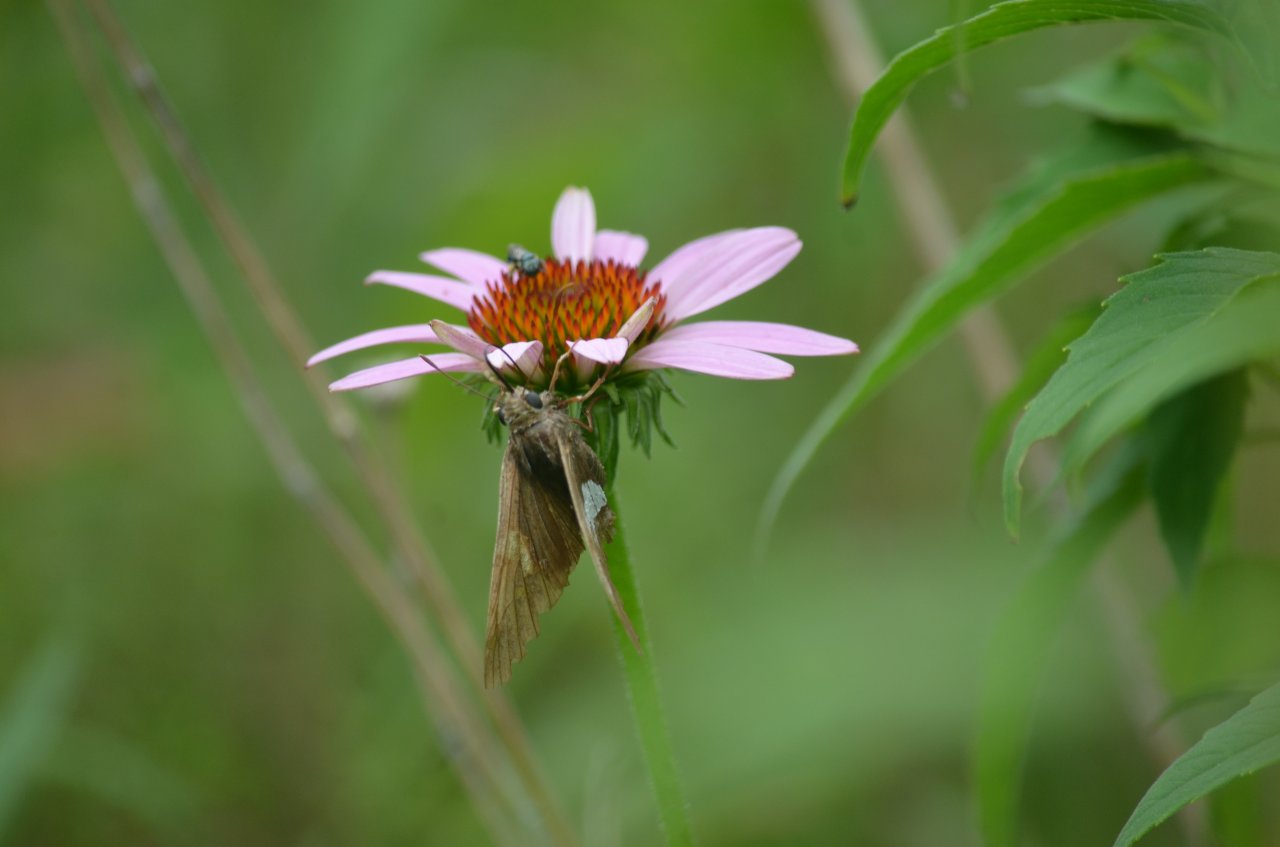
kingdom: Animalia
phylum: Arthropoda
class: Insecta
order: Lepidoptera
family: Hesperiidae
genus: Epargyreus
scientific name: Epargyreus clarus
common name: Silver-spotted Skipper
